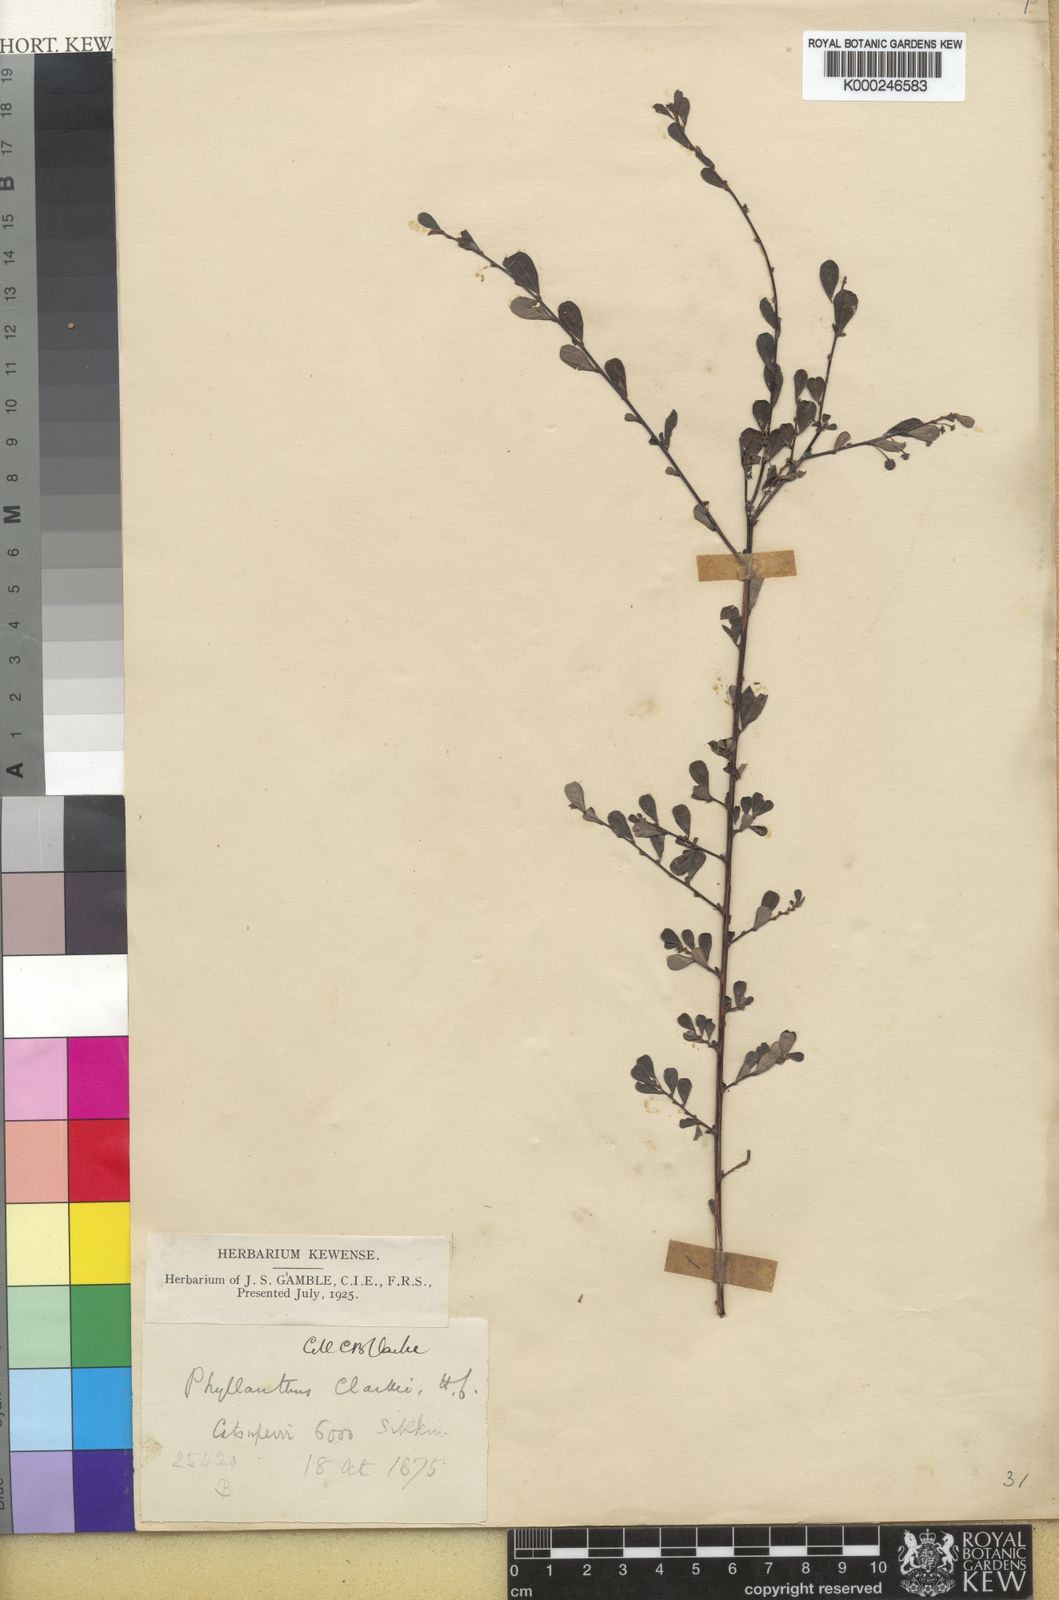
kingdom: Plantae
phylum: Tracheophyta
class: Magnoliopsida
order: Malpighiales
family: Phyllanthaceae
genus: Phyllanthus
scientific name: Phyllanthus clarkei
